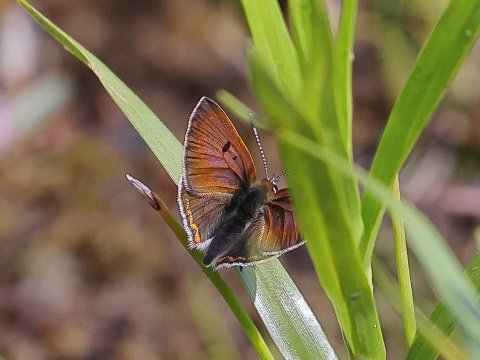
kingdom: Animalia
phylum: Arthropoda
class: Insecta
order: Lepidoptera
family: Sesiidae
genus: Sesia
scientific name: Sesia Lycaena epixanthe
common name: Bog Copper
